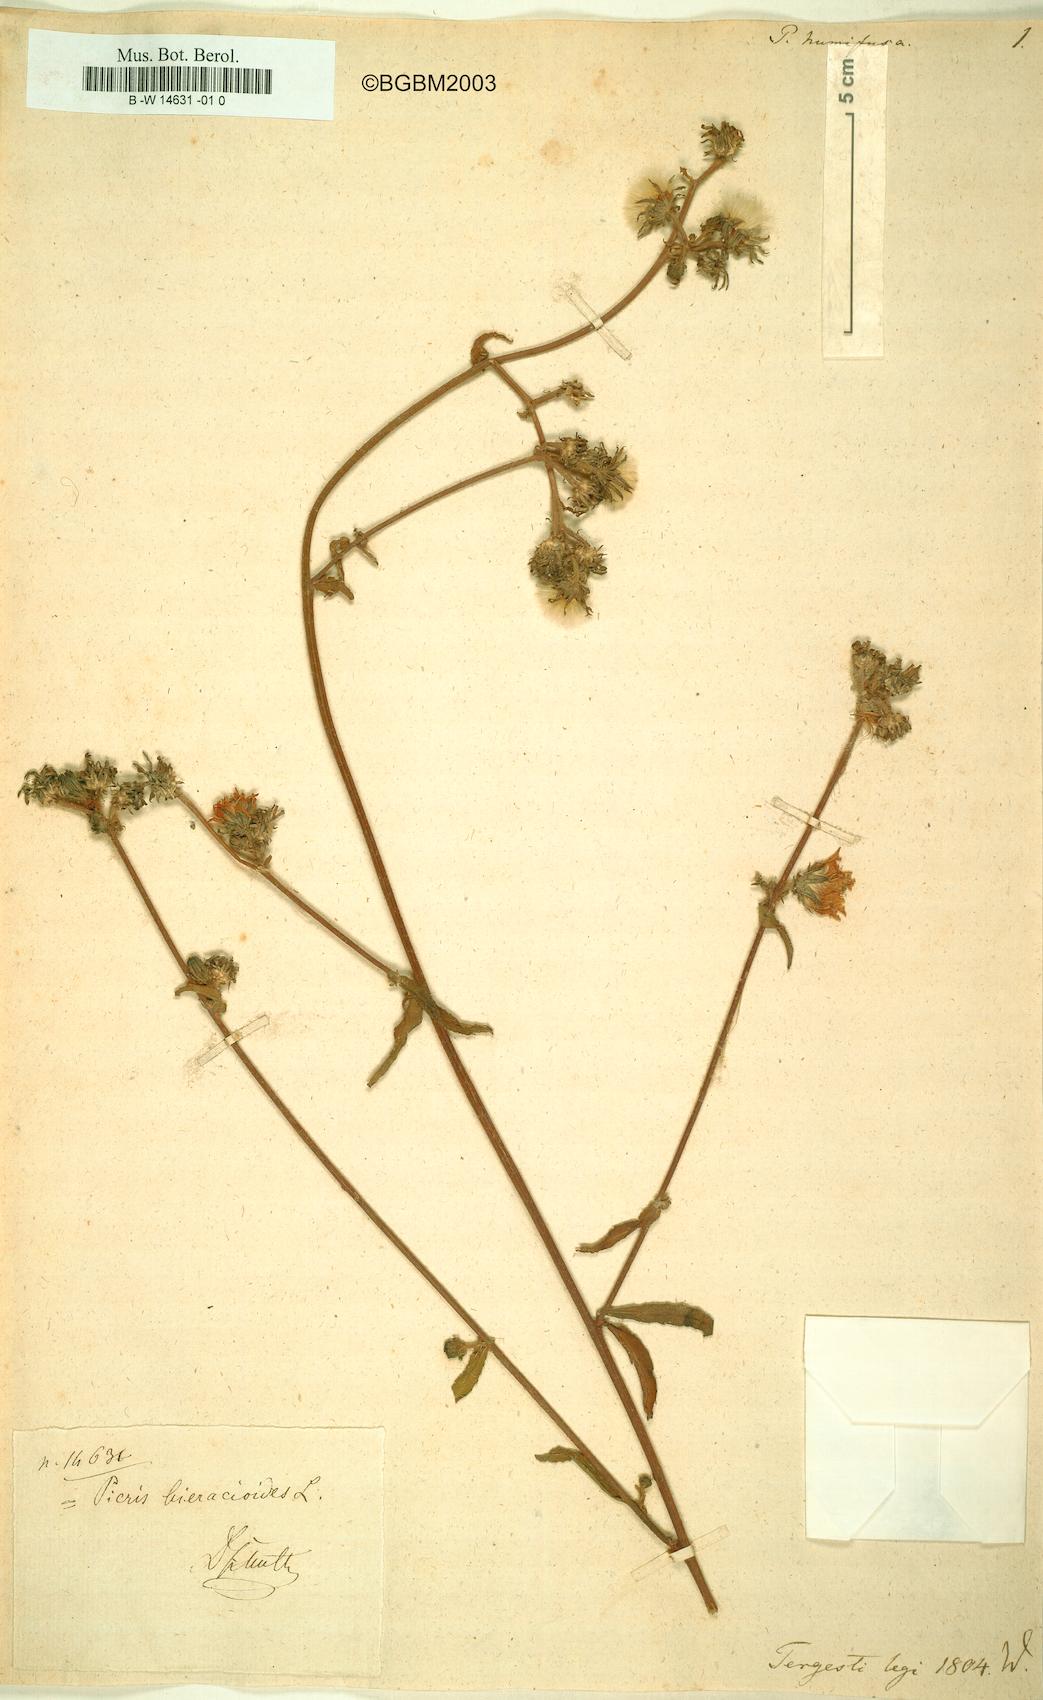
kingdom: Plantae
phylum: Tracheophyta
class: Magnoliopsida
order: Asterales
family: Asteraceae
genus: Helminthotheca
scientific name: Helminthotheca echioides
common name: Ox-tongue
